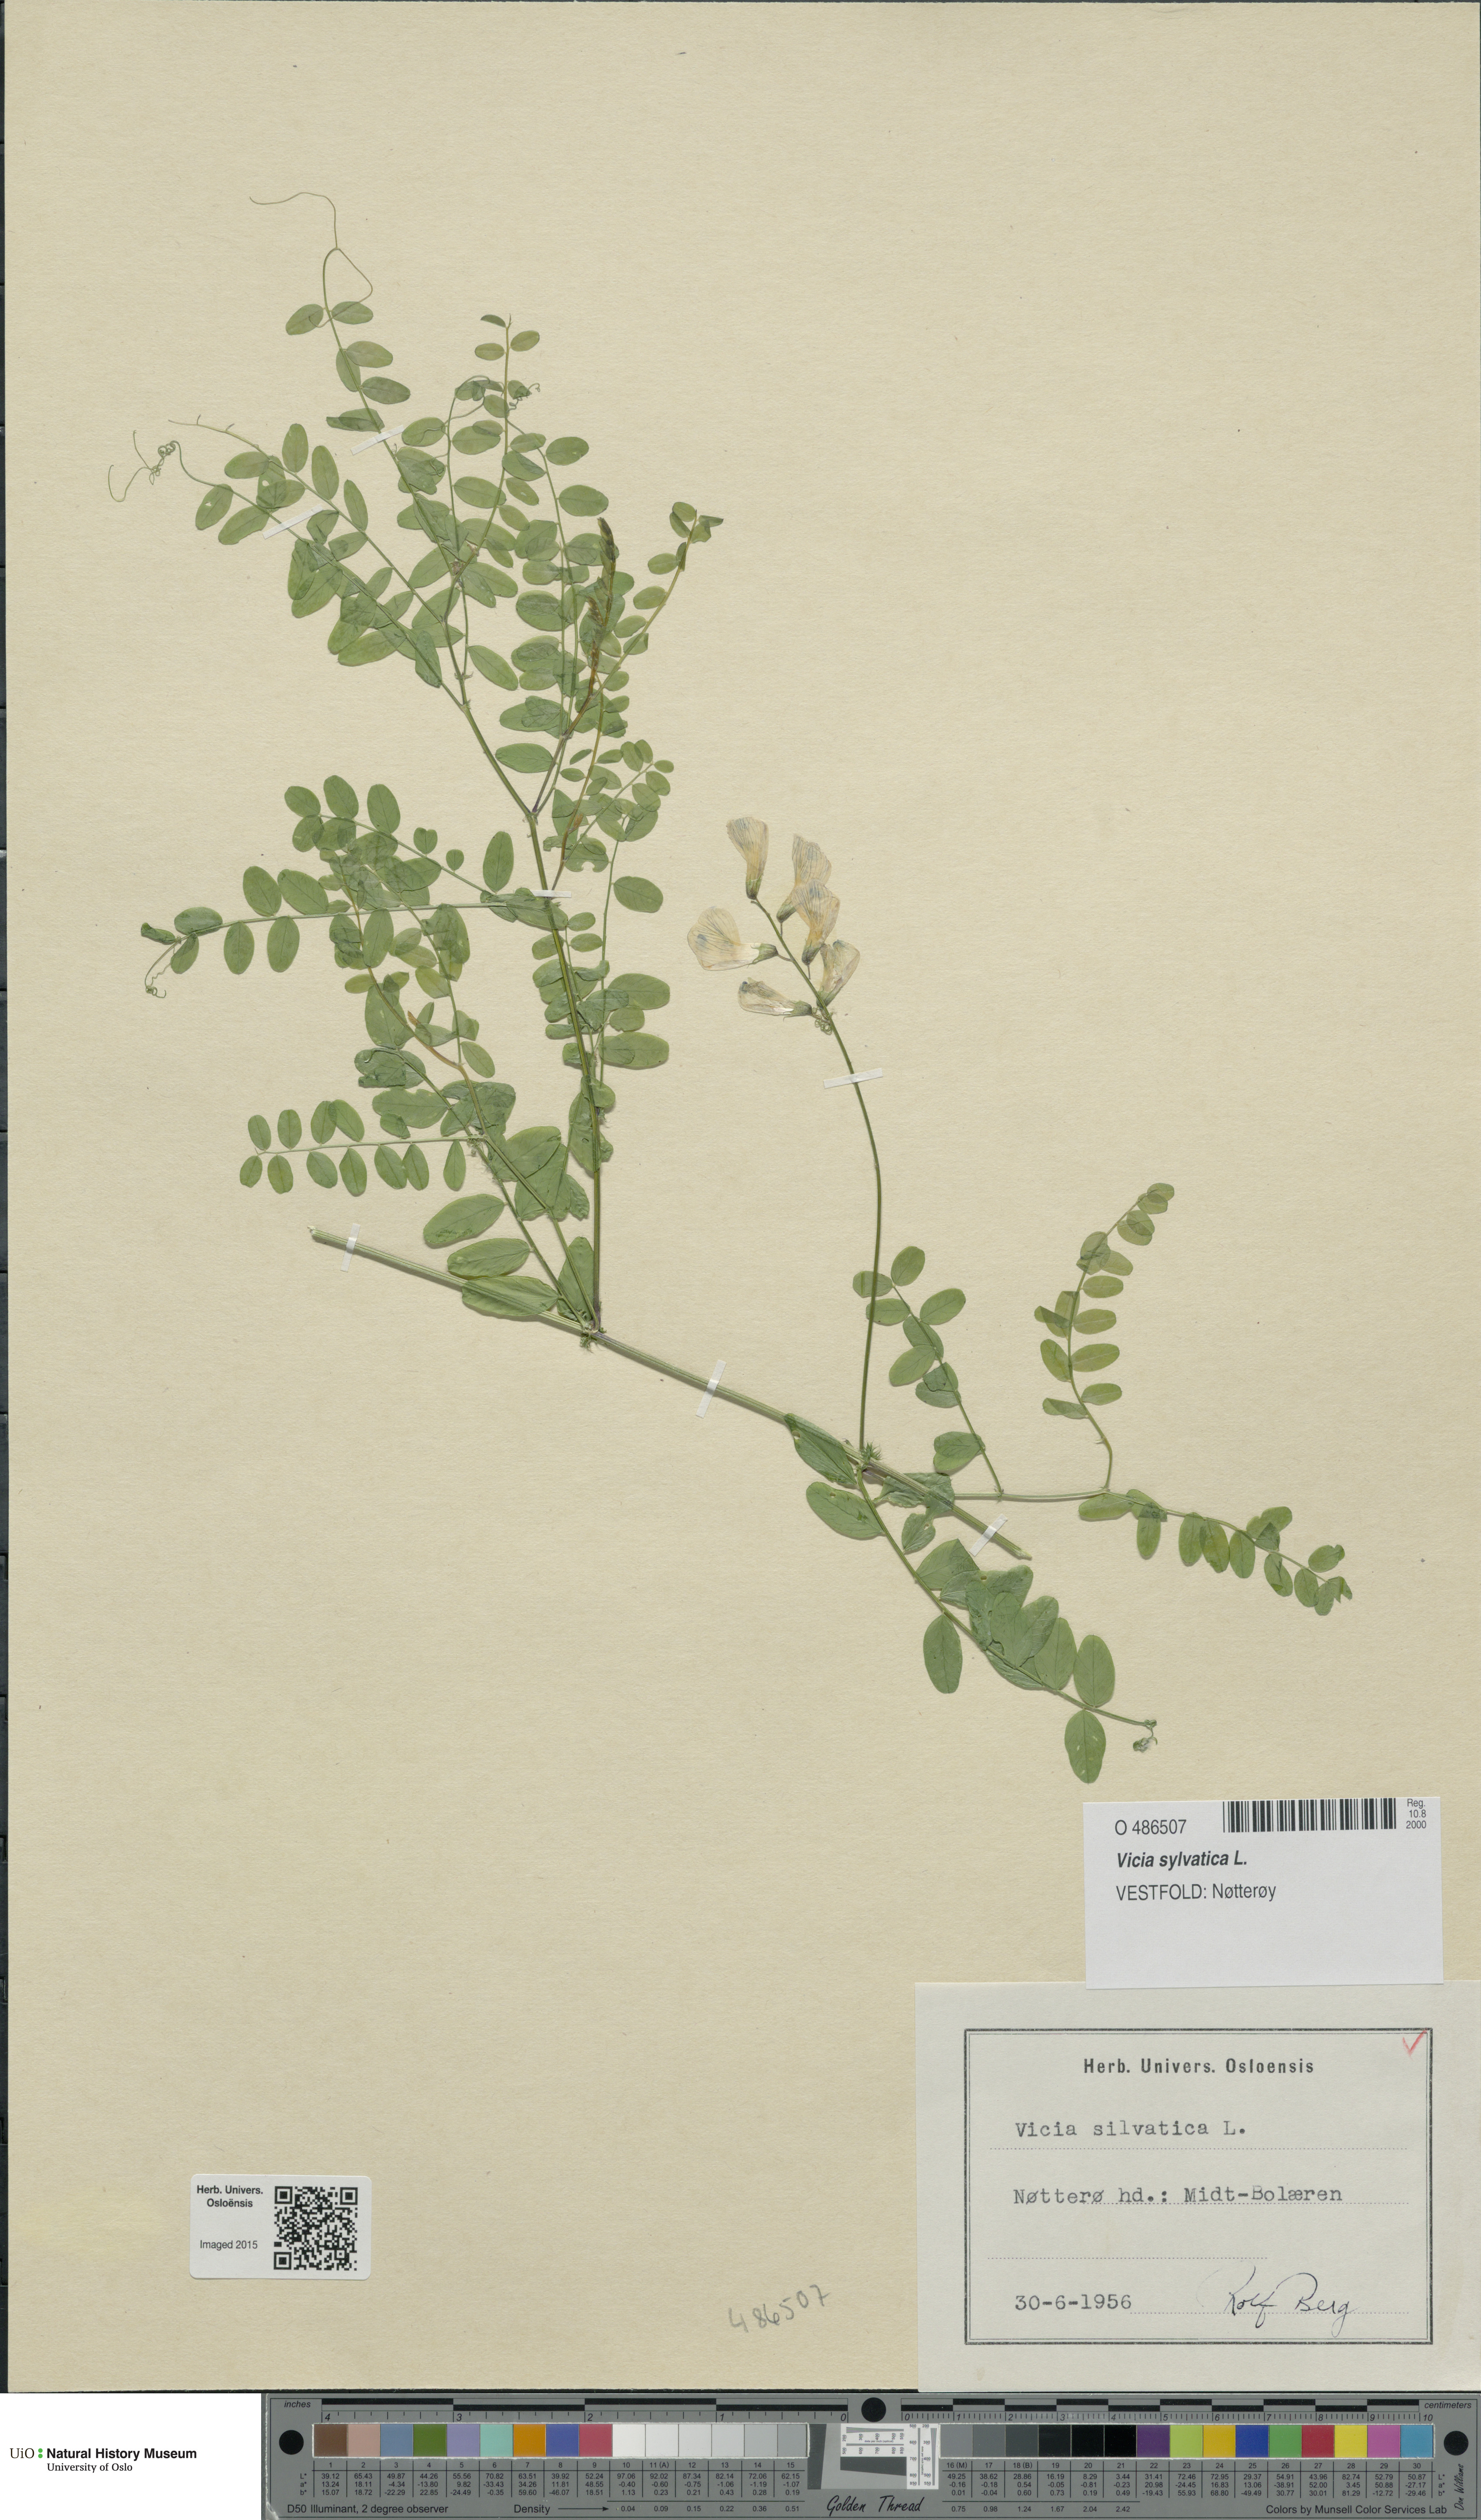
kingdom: Plantae
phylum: Tracheophyta
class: Magnoliopsida
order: Fabales
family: Fabaceae
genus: Vicia
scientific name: Vicia sylvatica
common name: Wood vetch
